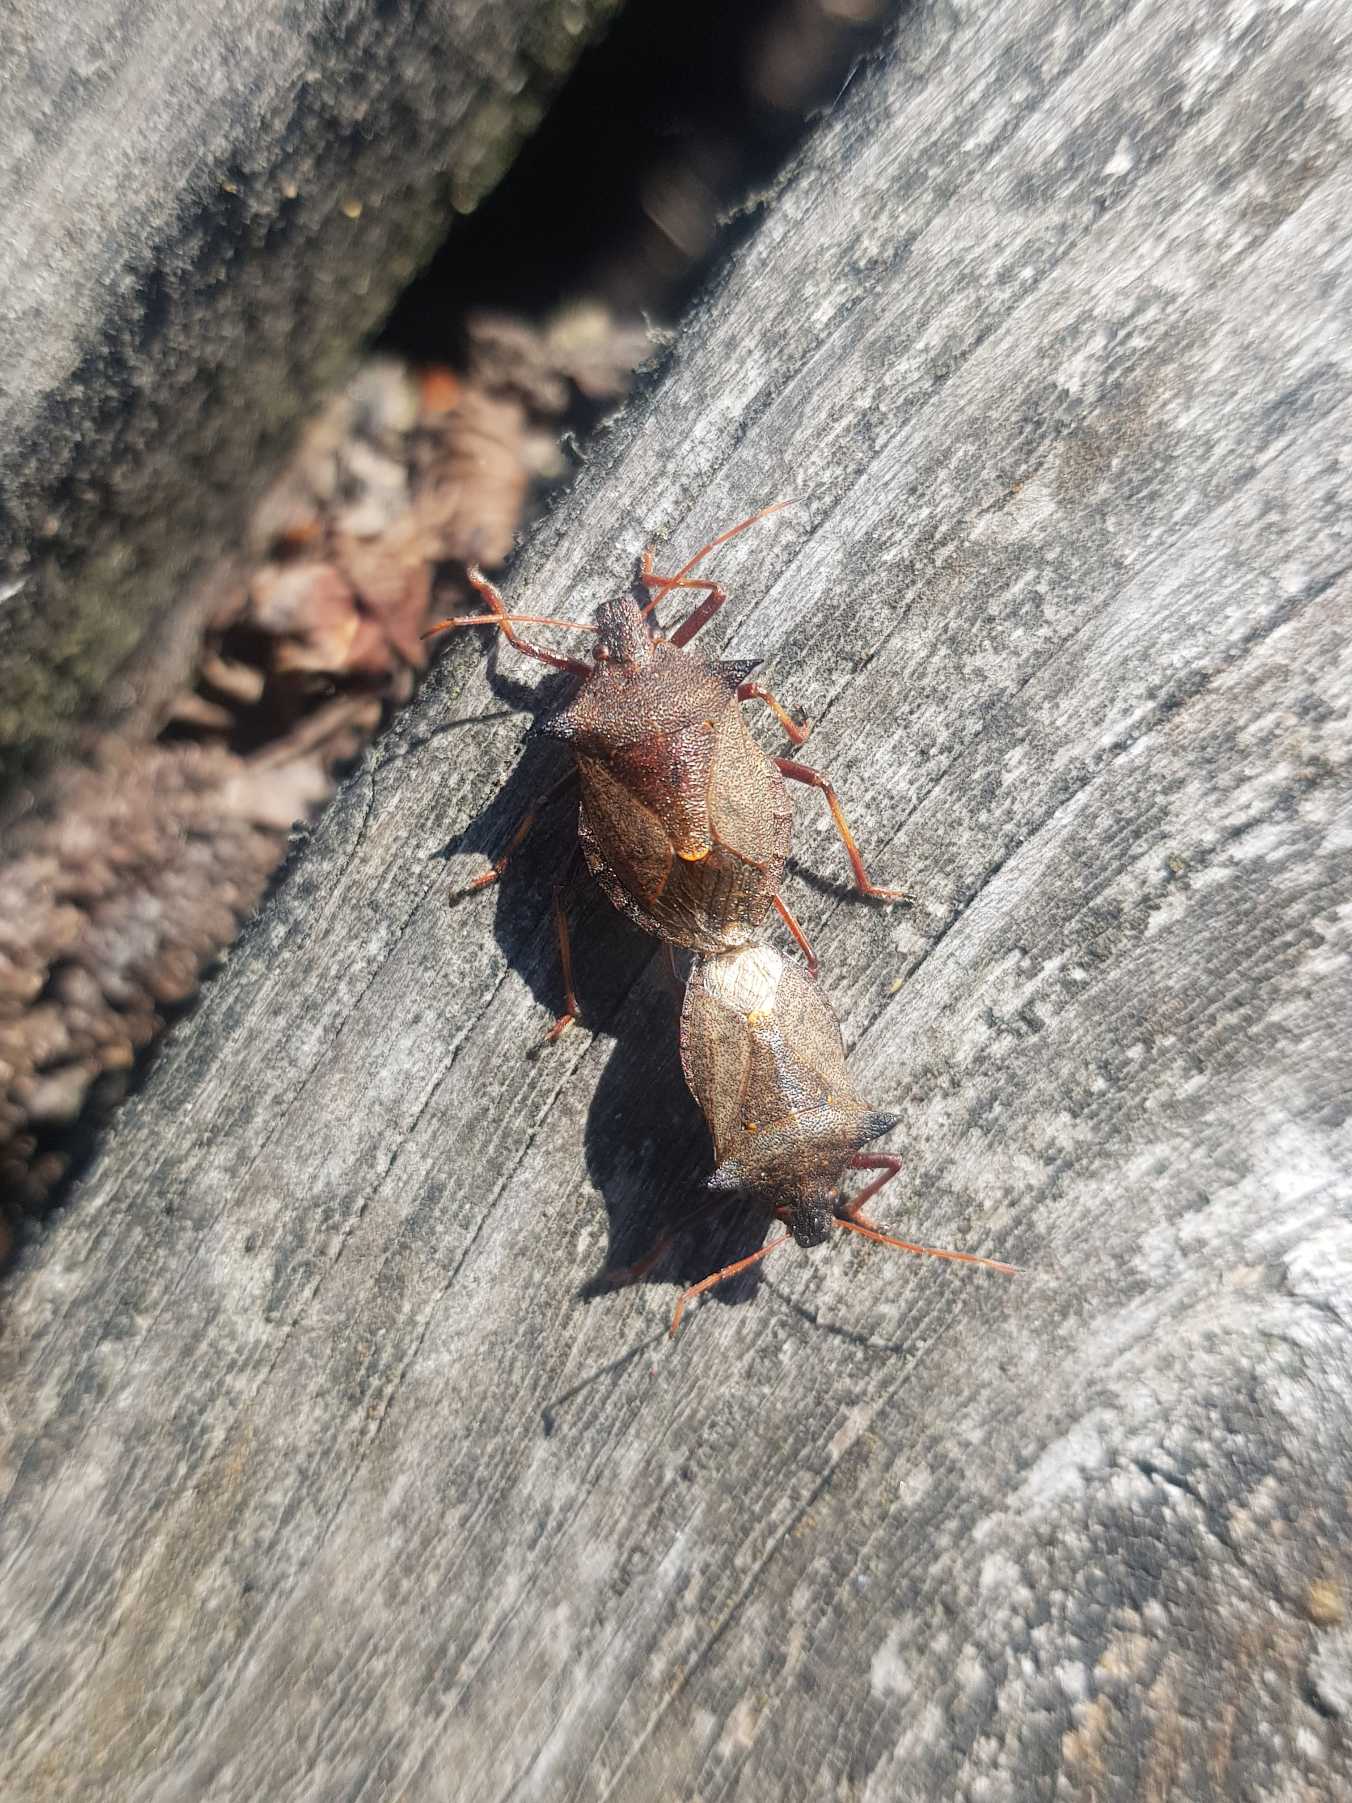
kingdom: Animalia
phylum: Arthropoda
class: Insecta
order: Hemiptera
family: Pentatomidae
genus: Picromerus
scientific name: Picromerus bidens
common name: Torntæge
